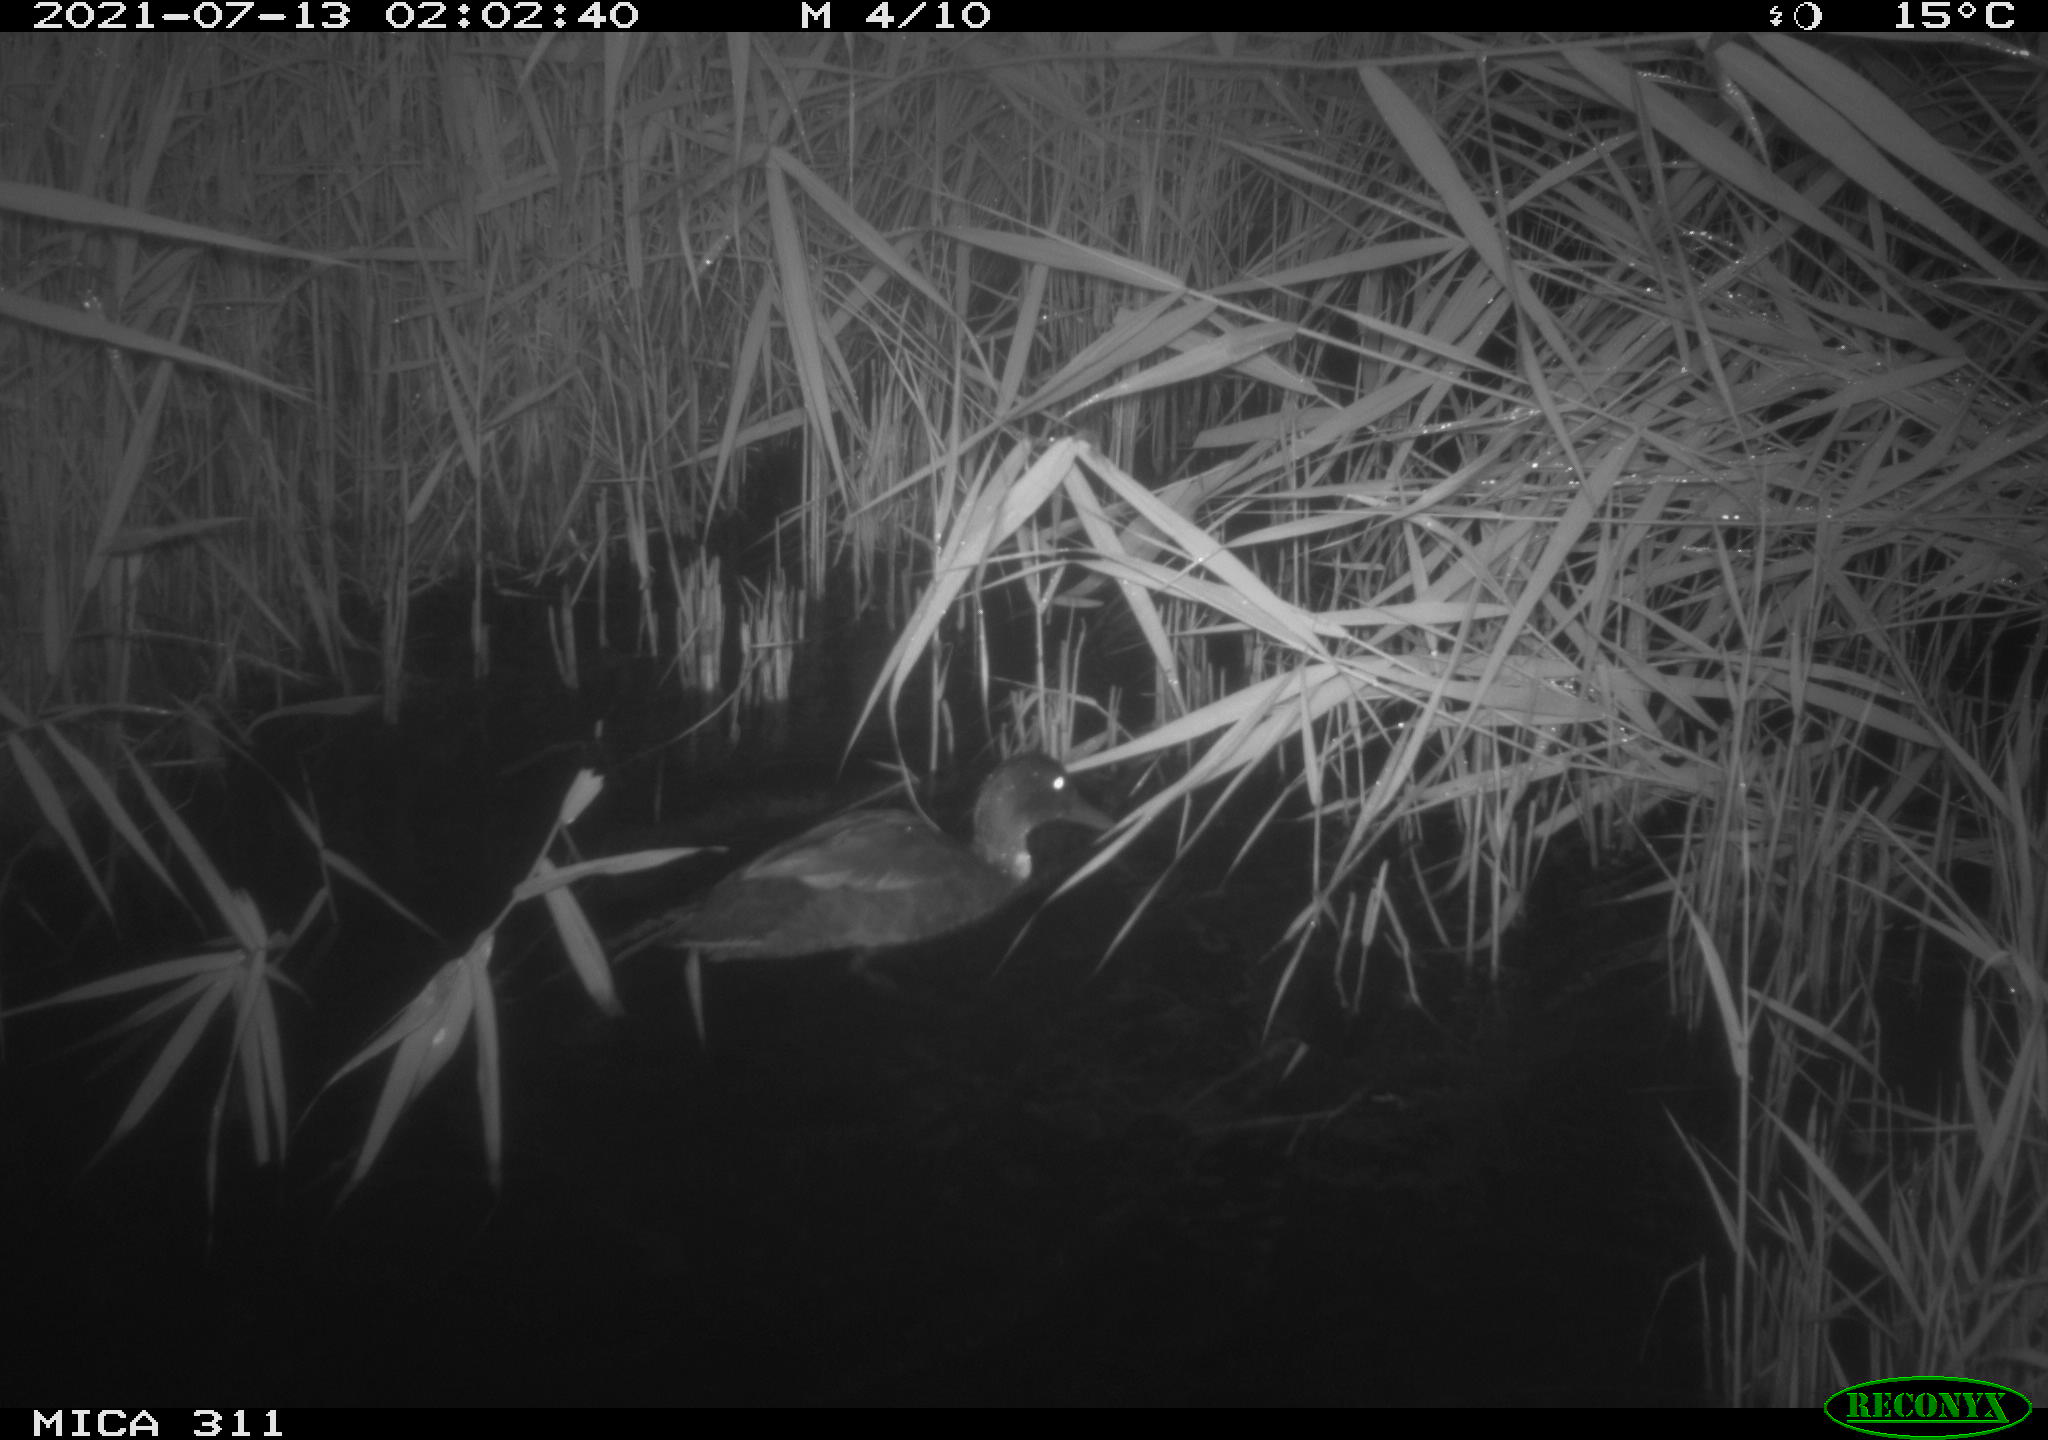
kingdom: Animalia
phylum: Chordata
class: Aves
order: Anseriformes
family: Anatidae
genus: Anas
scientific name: Anas
